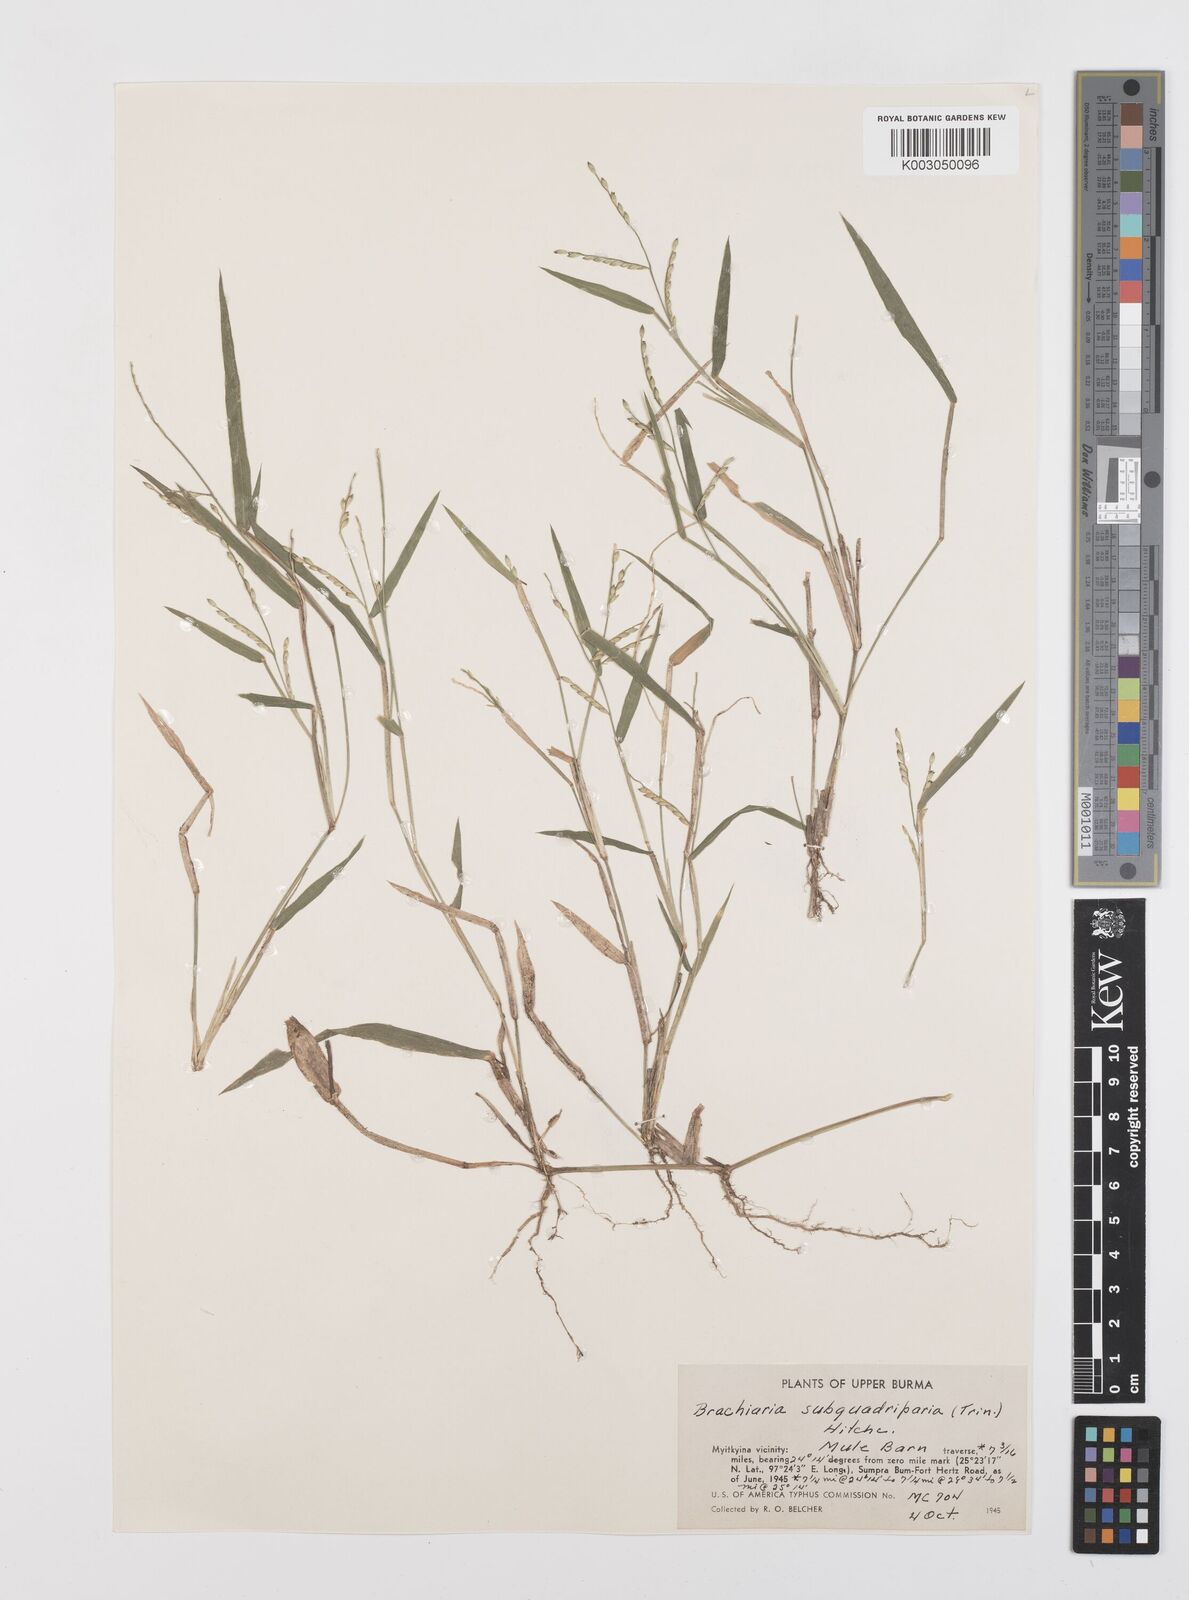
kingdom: Plantae
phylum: Tracheophyta
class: Liliopsida
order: Poales
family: Poaceae
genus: Urochloa
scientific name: Urochloa subquadripara
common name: Armgrass millet
